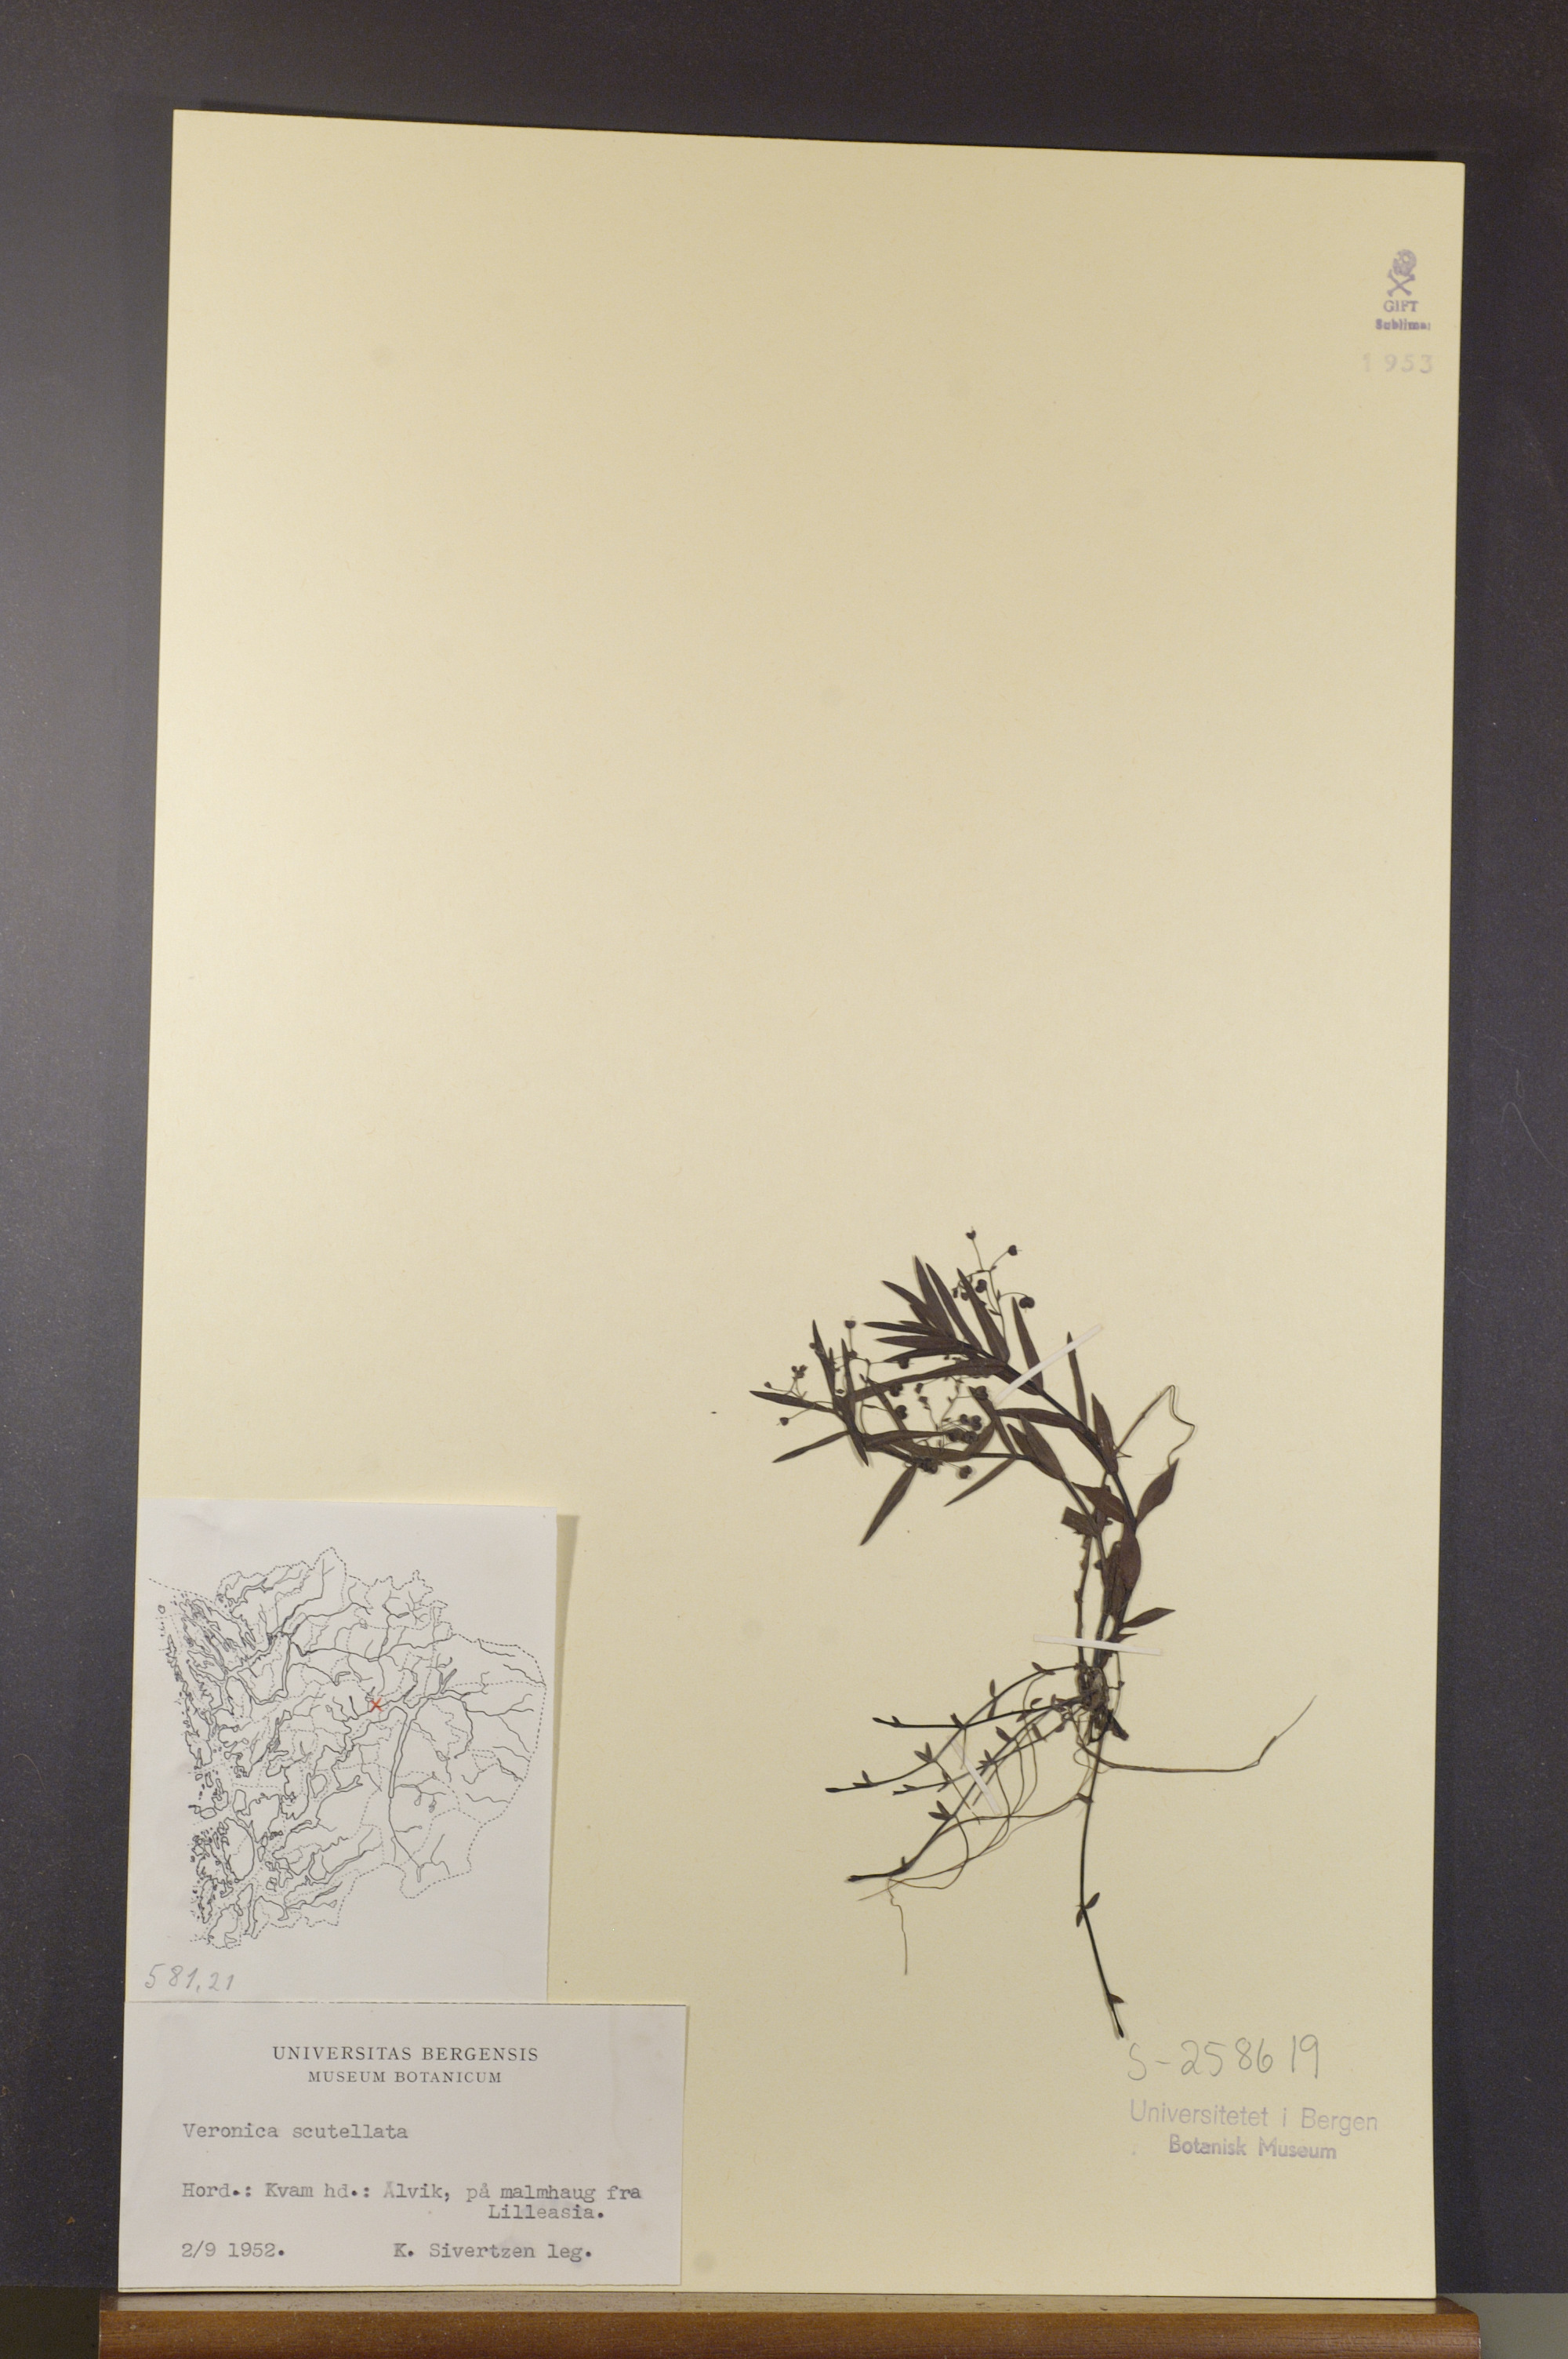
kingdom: Plantae
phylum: Tracheophyta
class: Magnoliopsida
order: Lamiales
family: Plantaginaceae
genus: Veronica
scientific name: Veronica scutellata
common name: Marsh speedwell
